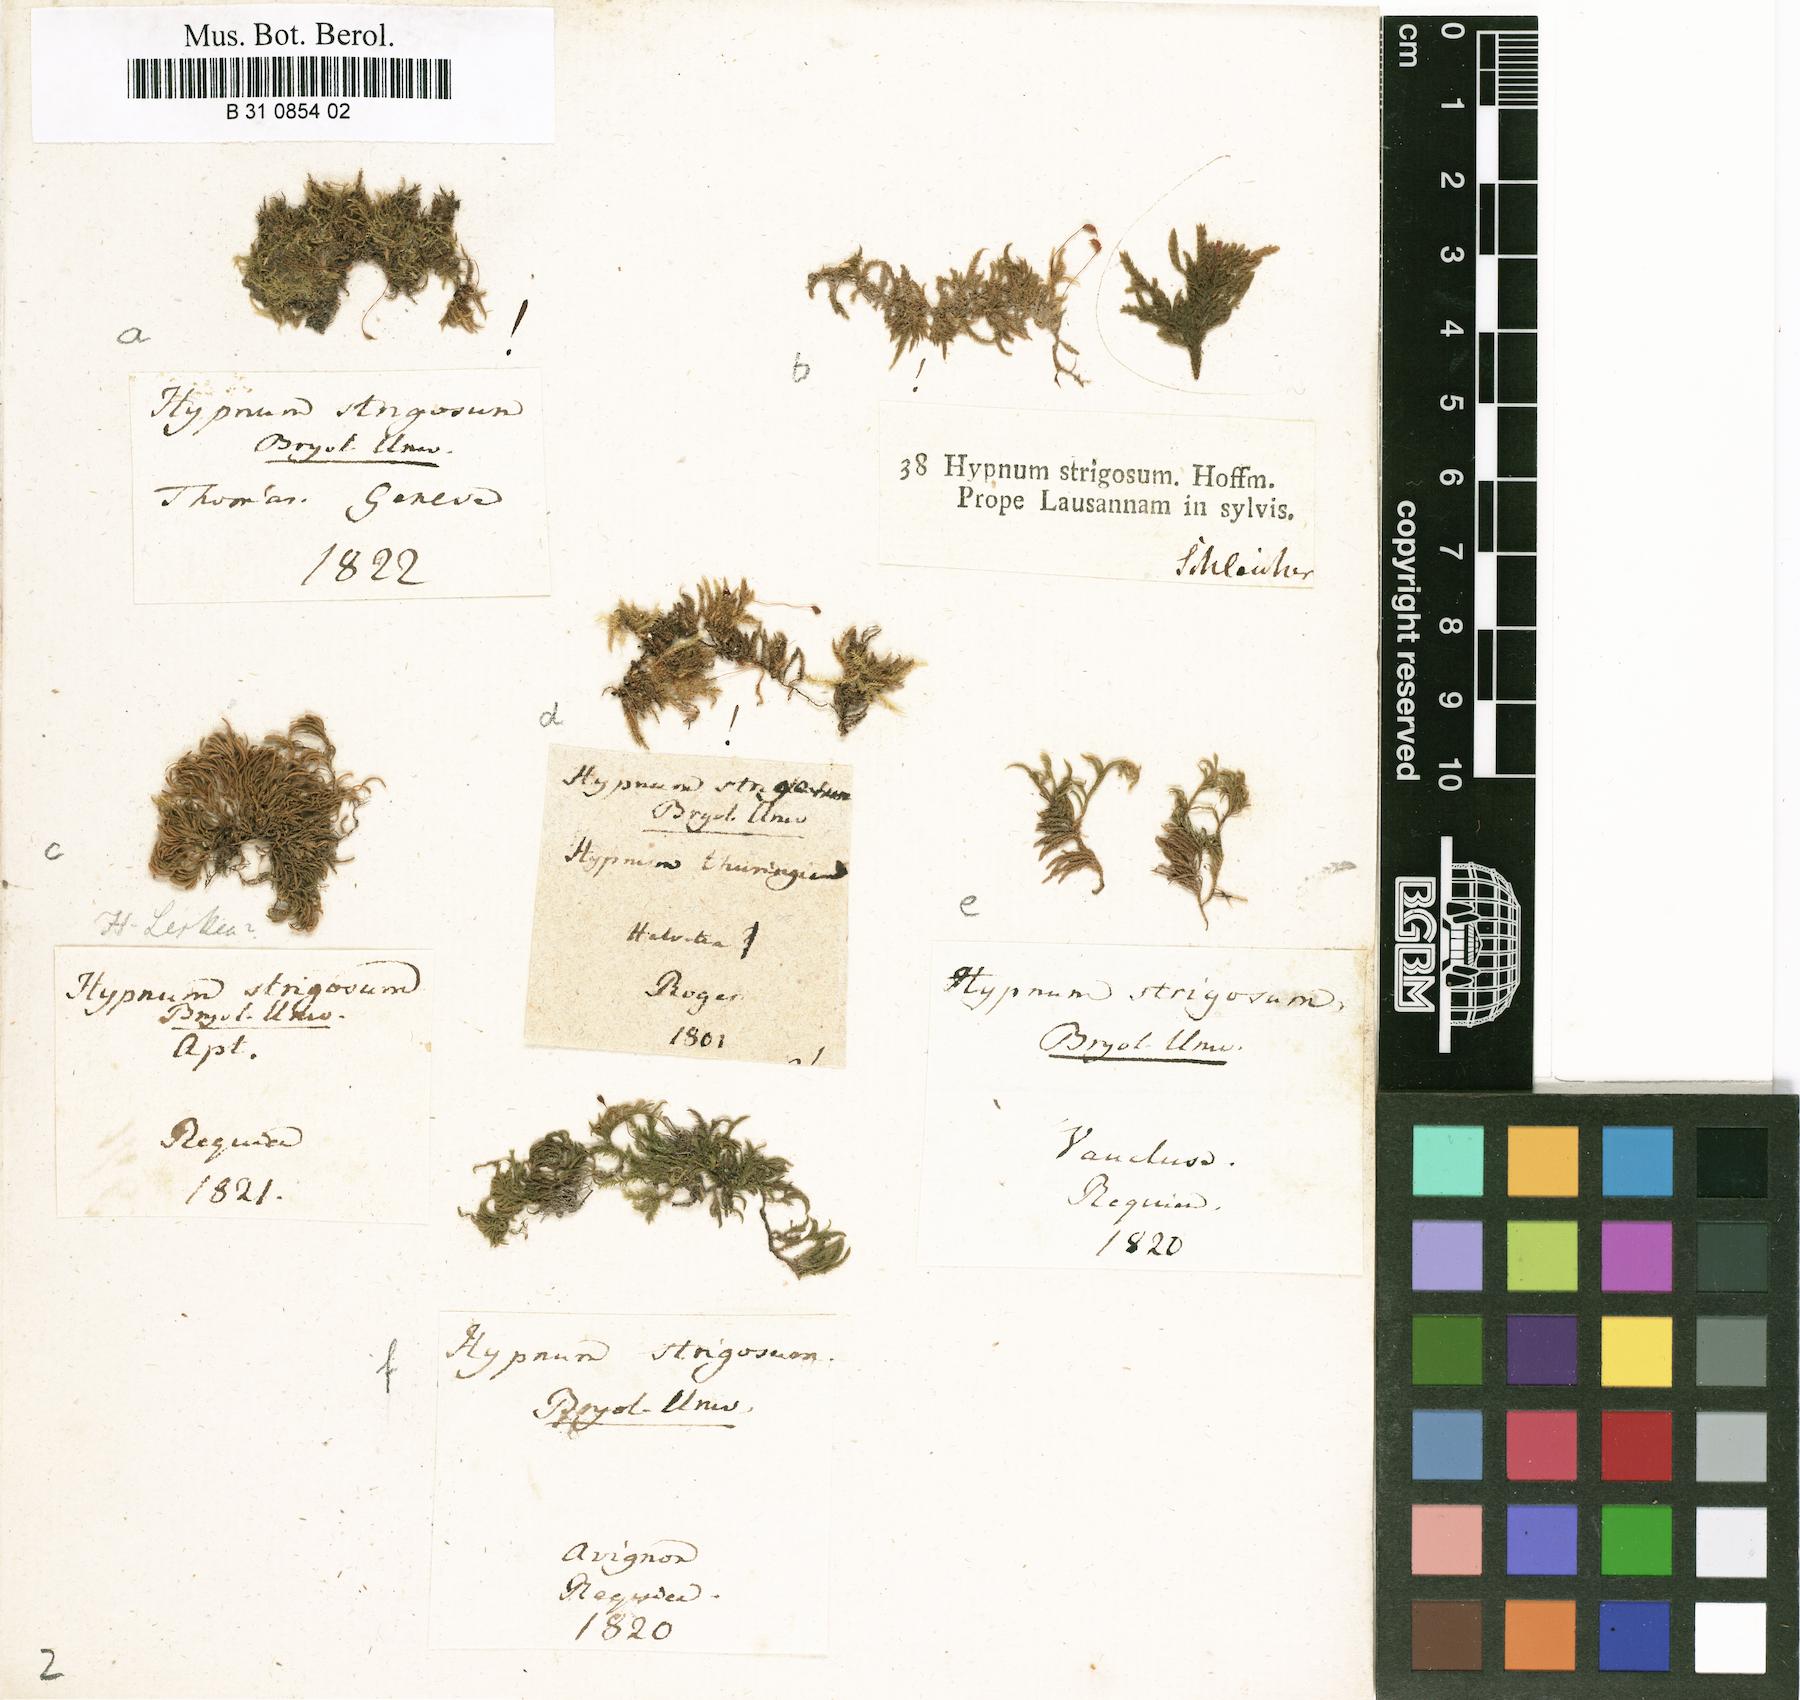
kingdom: Plantae
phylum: Bryophyta
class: Bryopsida
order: Hypnales
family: Brachytheciaceae
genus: Eurhynchiastrum
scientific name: Eurhynchiastrum pulchellum
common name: Elegant beaked moss
